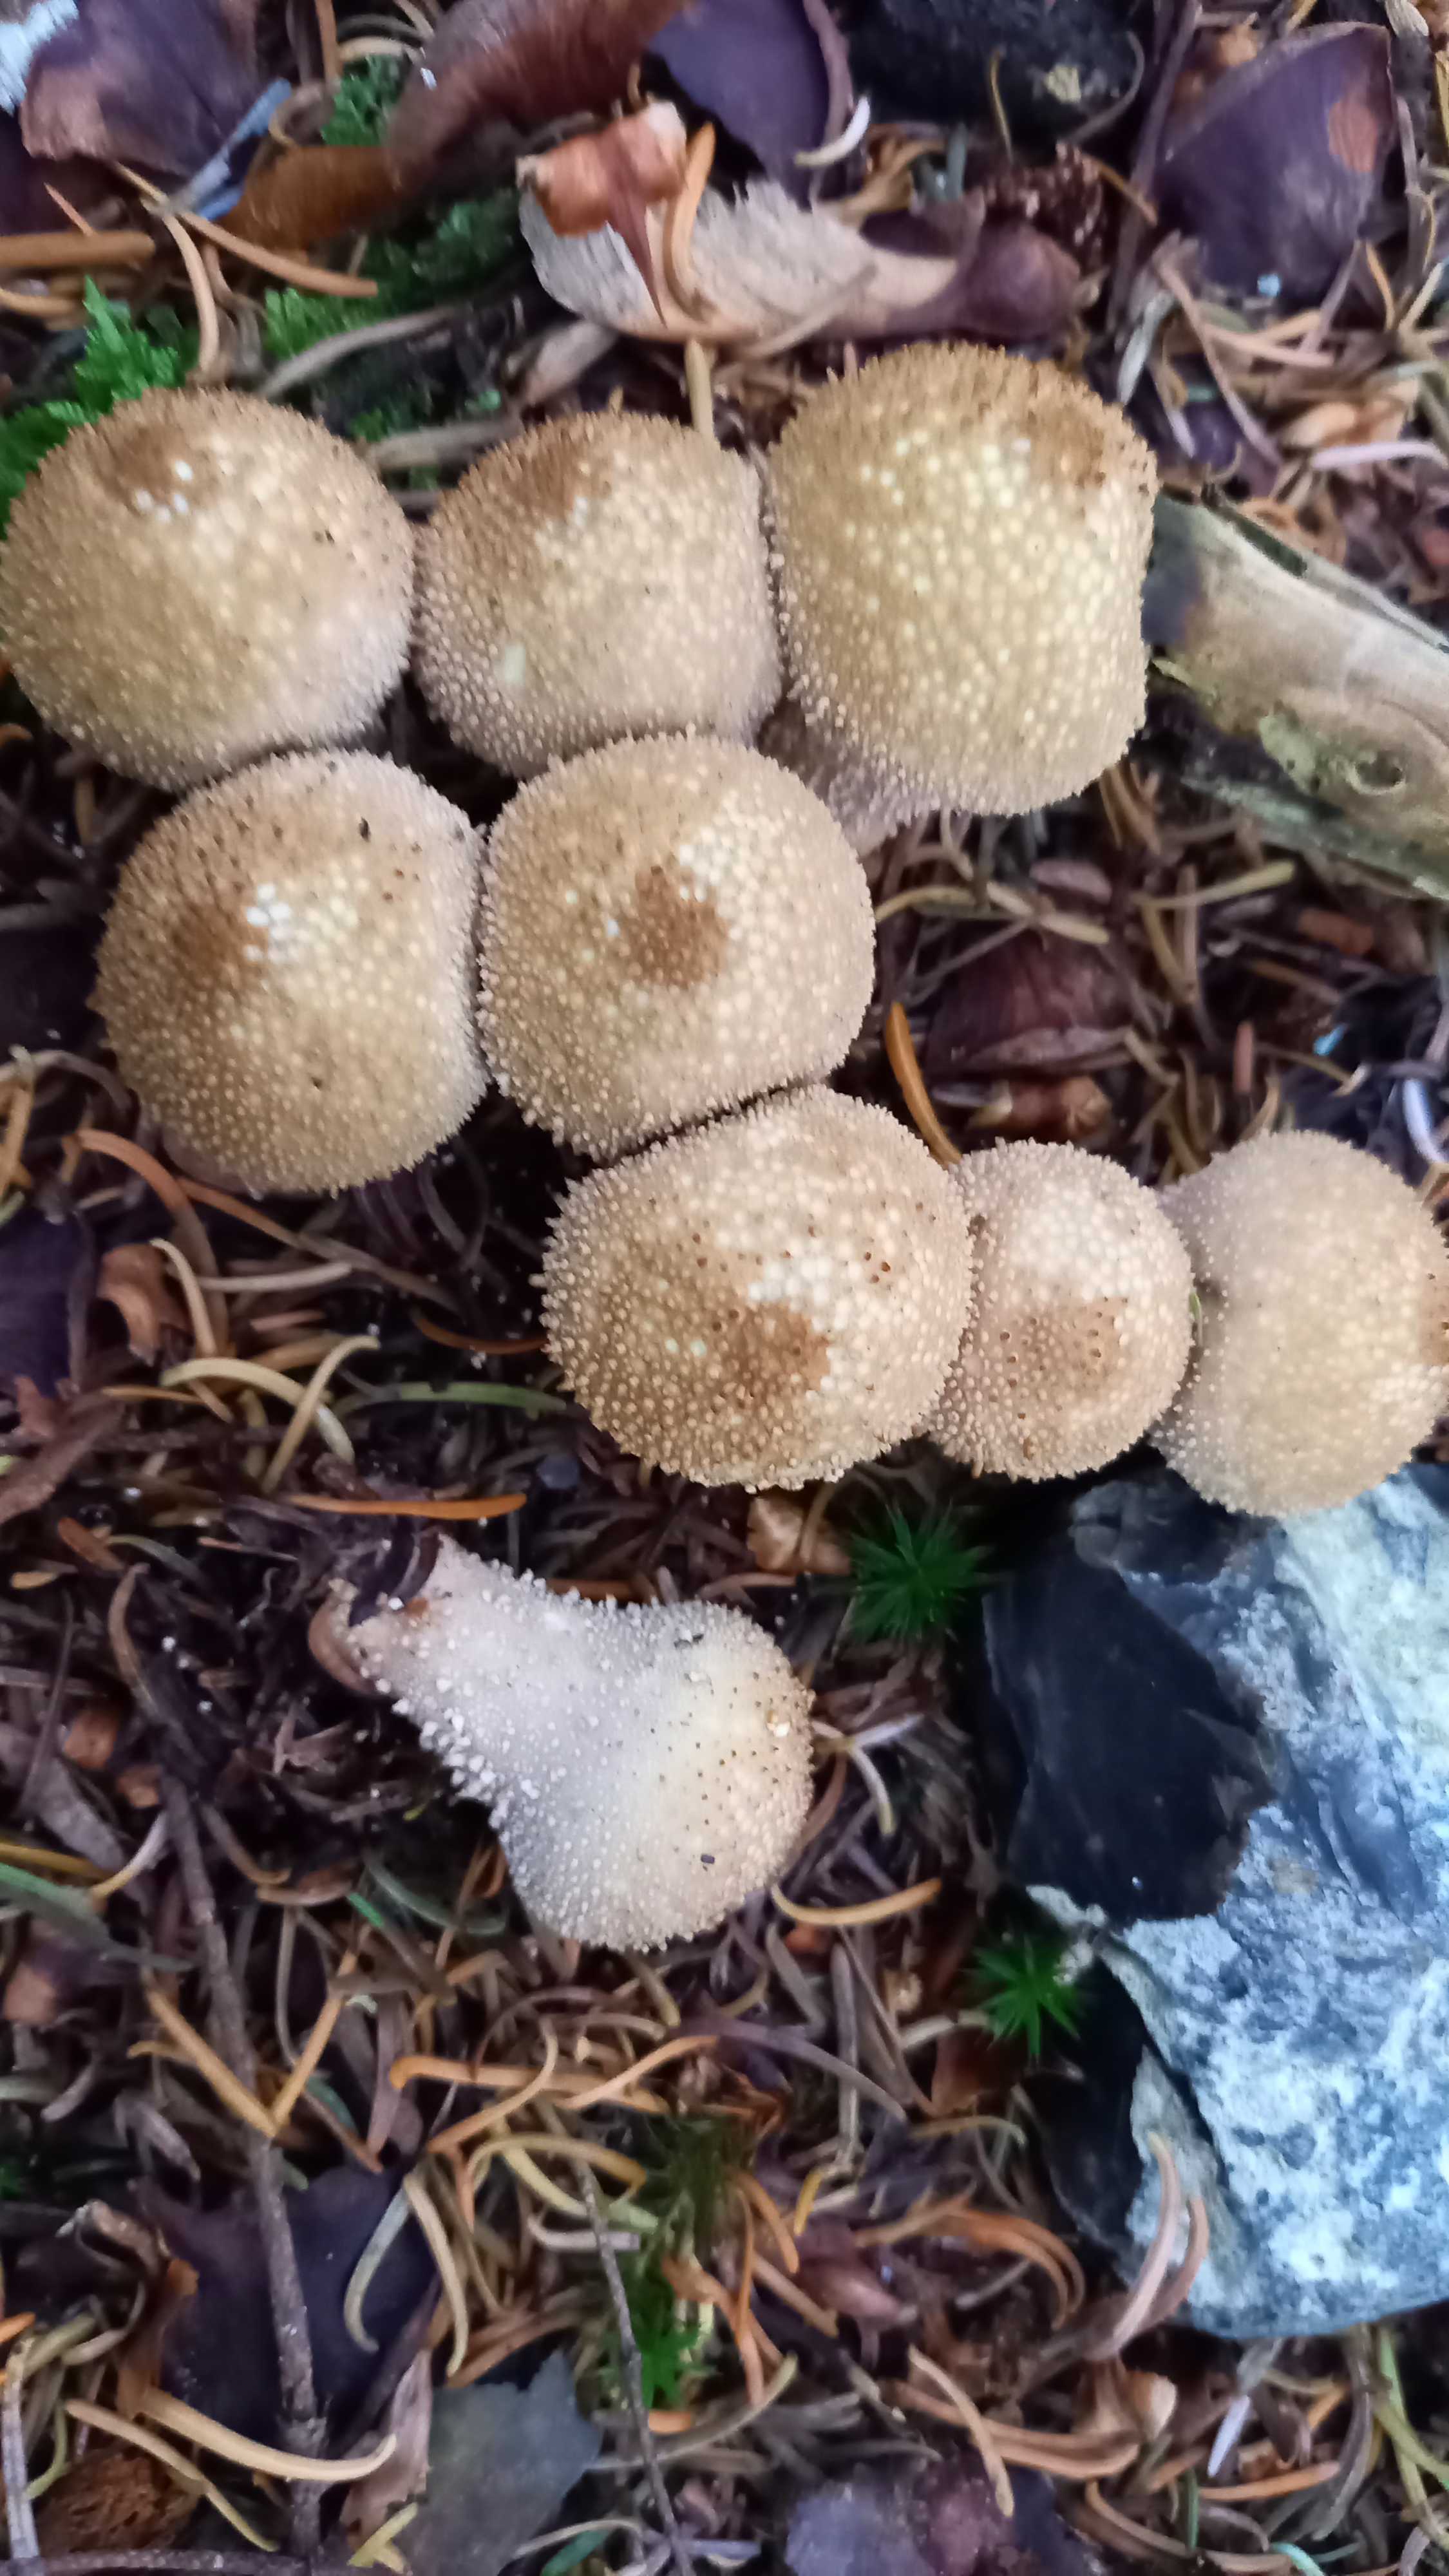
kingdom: Fungi
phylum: Basidiomycota
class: Agaricomycetes
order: Agaricales
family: Lycoperdaceae
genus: Lycoperdon
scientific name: Lycoperdon perlatum
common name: krystal-støvbold
